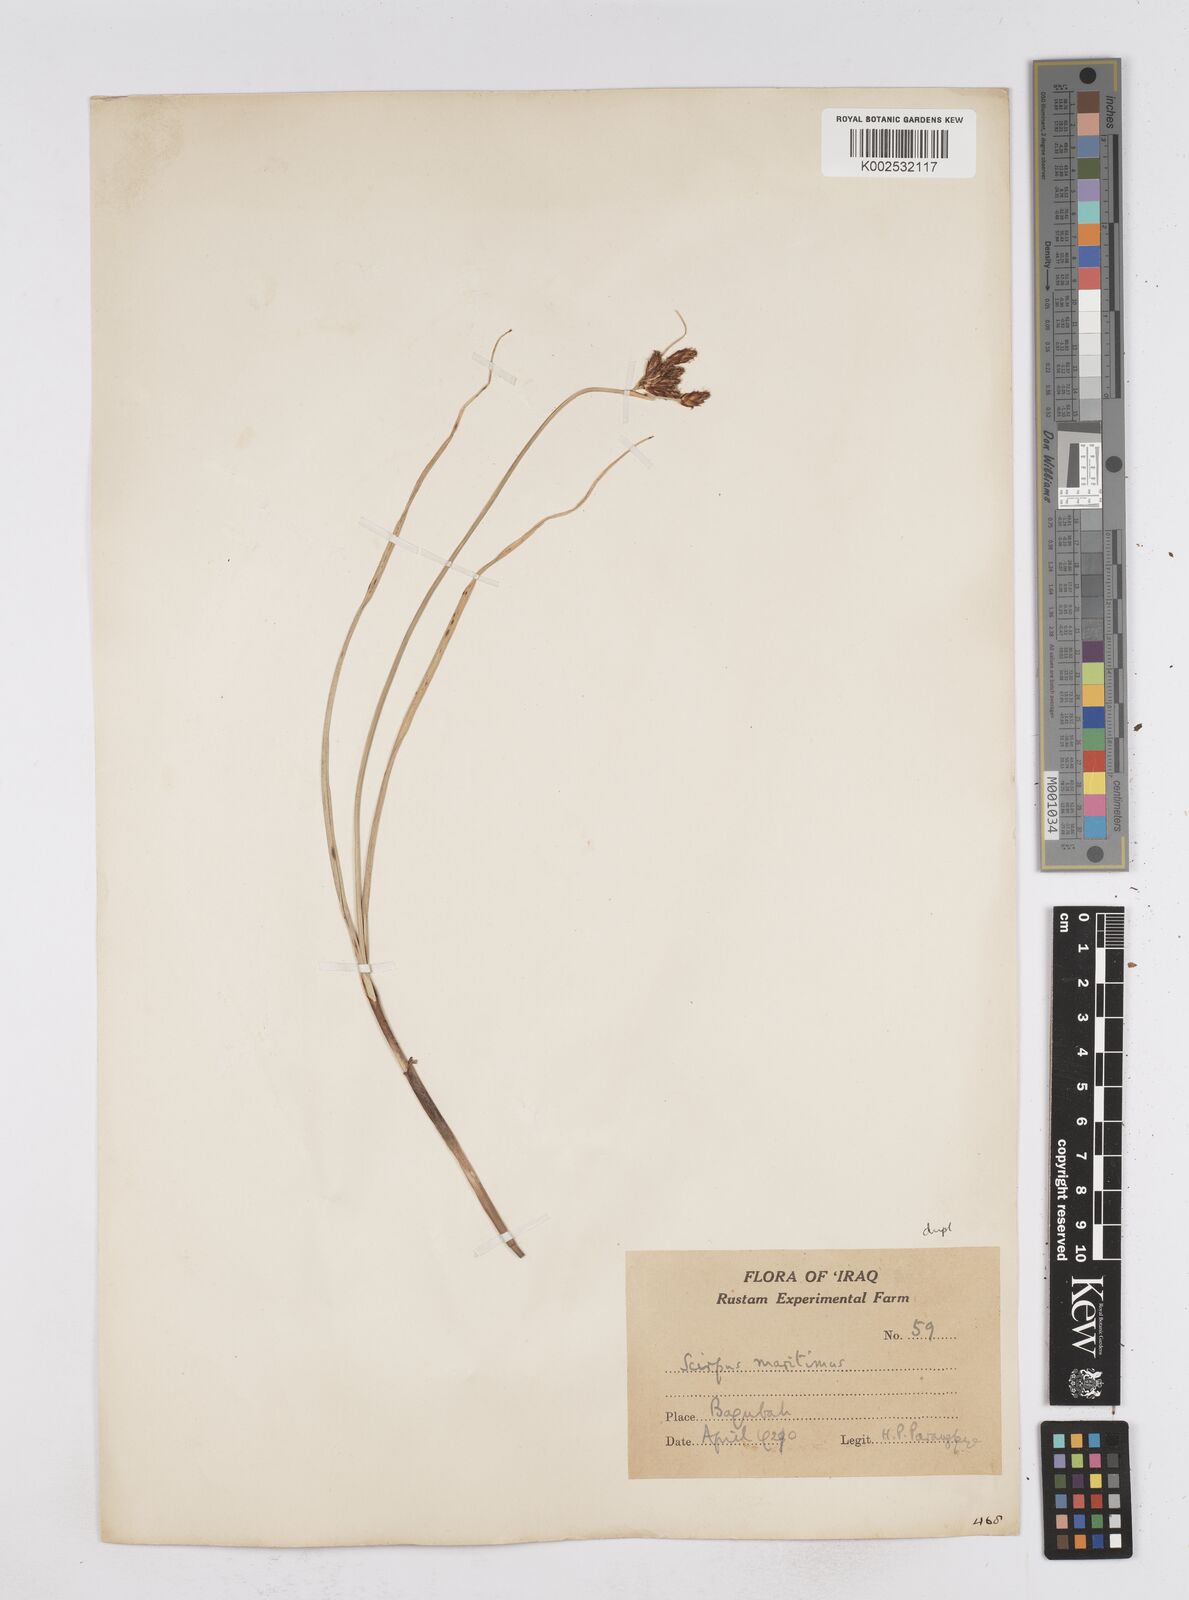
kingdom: Plantae
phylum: Tracheophyta
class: Liliopsida
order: Poales
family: Cyperaceae
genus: Bolboschoenus
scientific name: Bolboschoenus maritimus
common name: Sea club-rush
